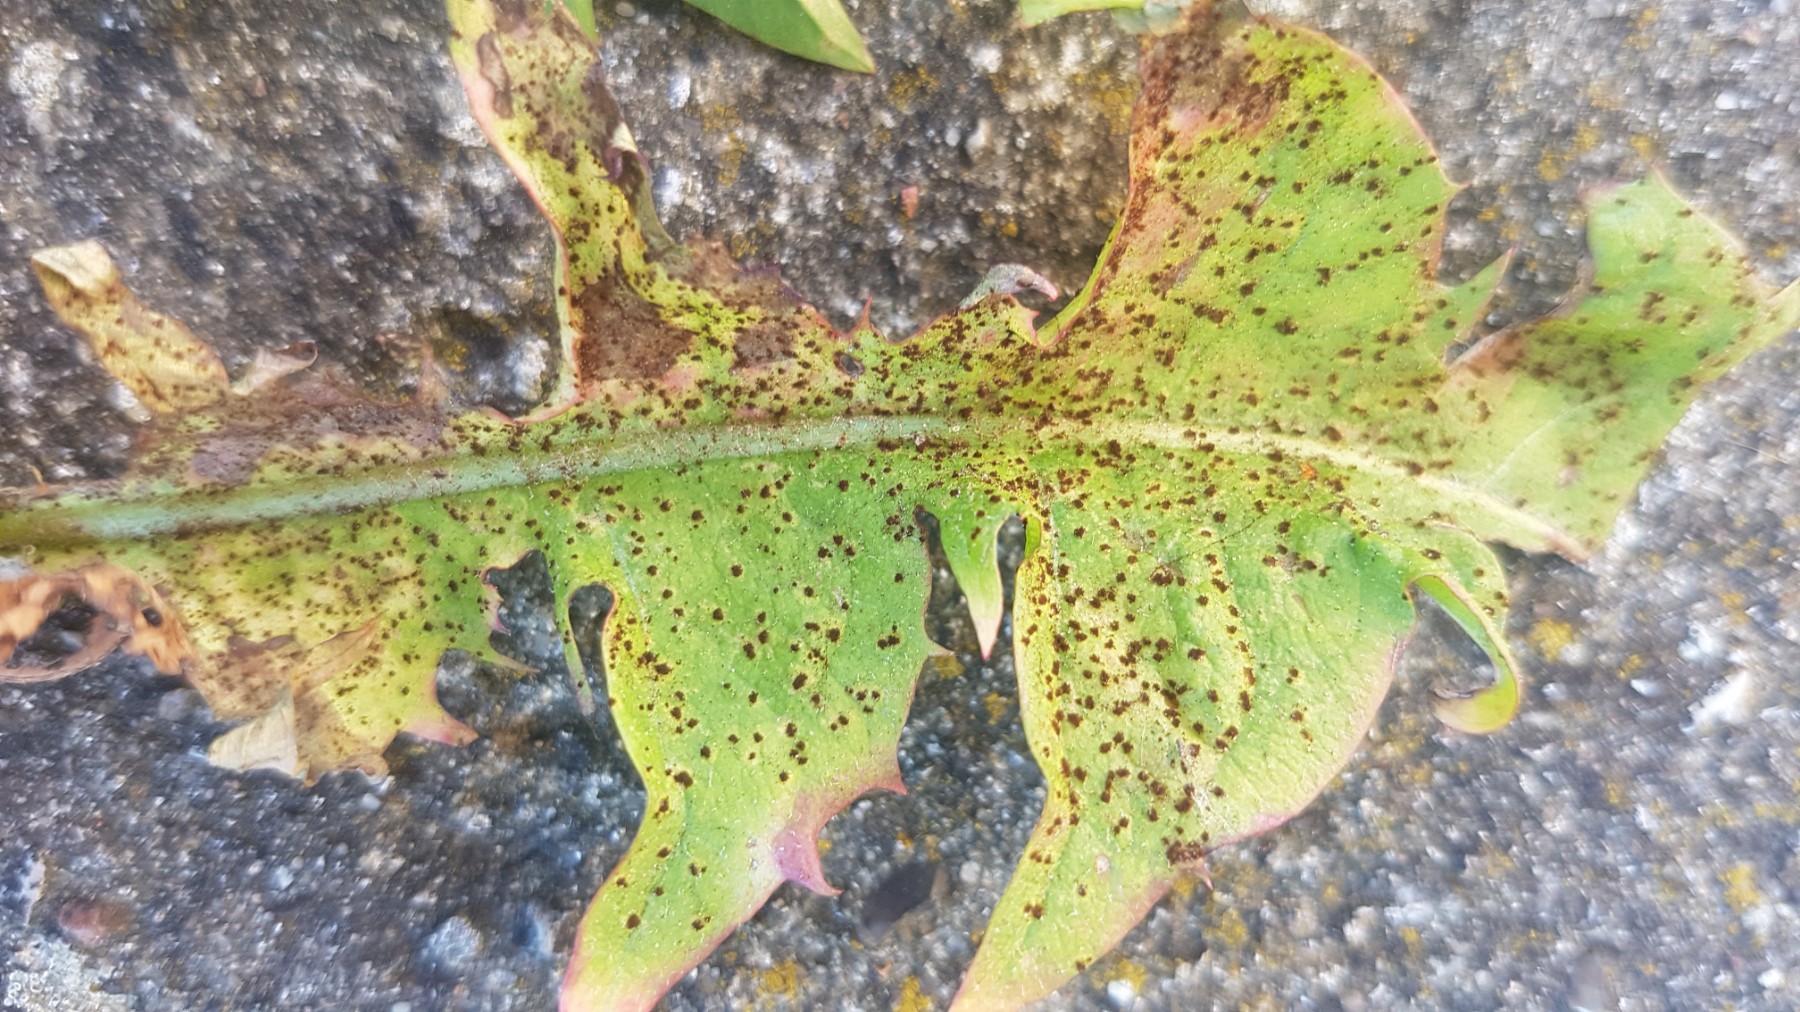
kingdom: Fungi
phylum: Basidiomycota
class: Pucciniomycetes
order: Pucciniales
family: Pucciniaceae
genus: Puccinia
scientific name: Puccinia hieracii
